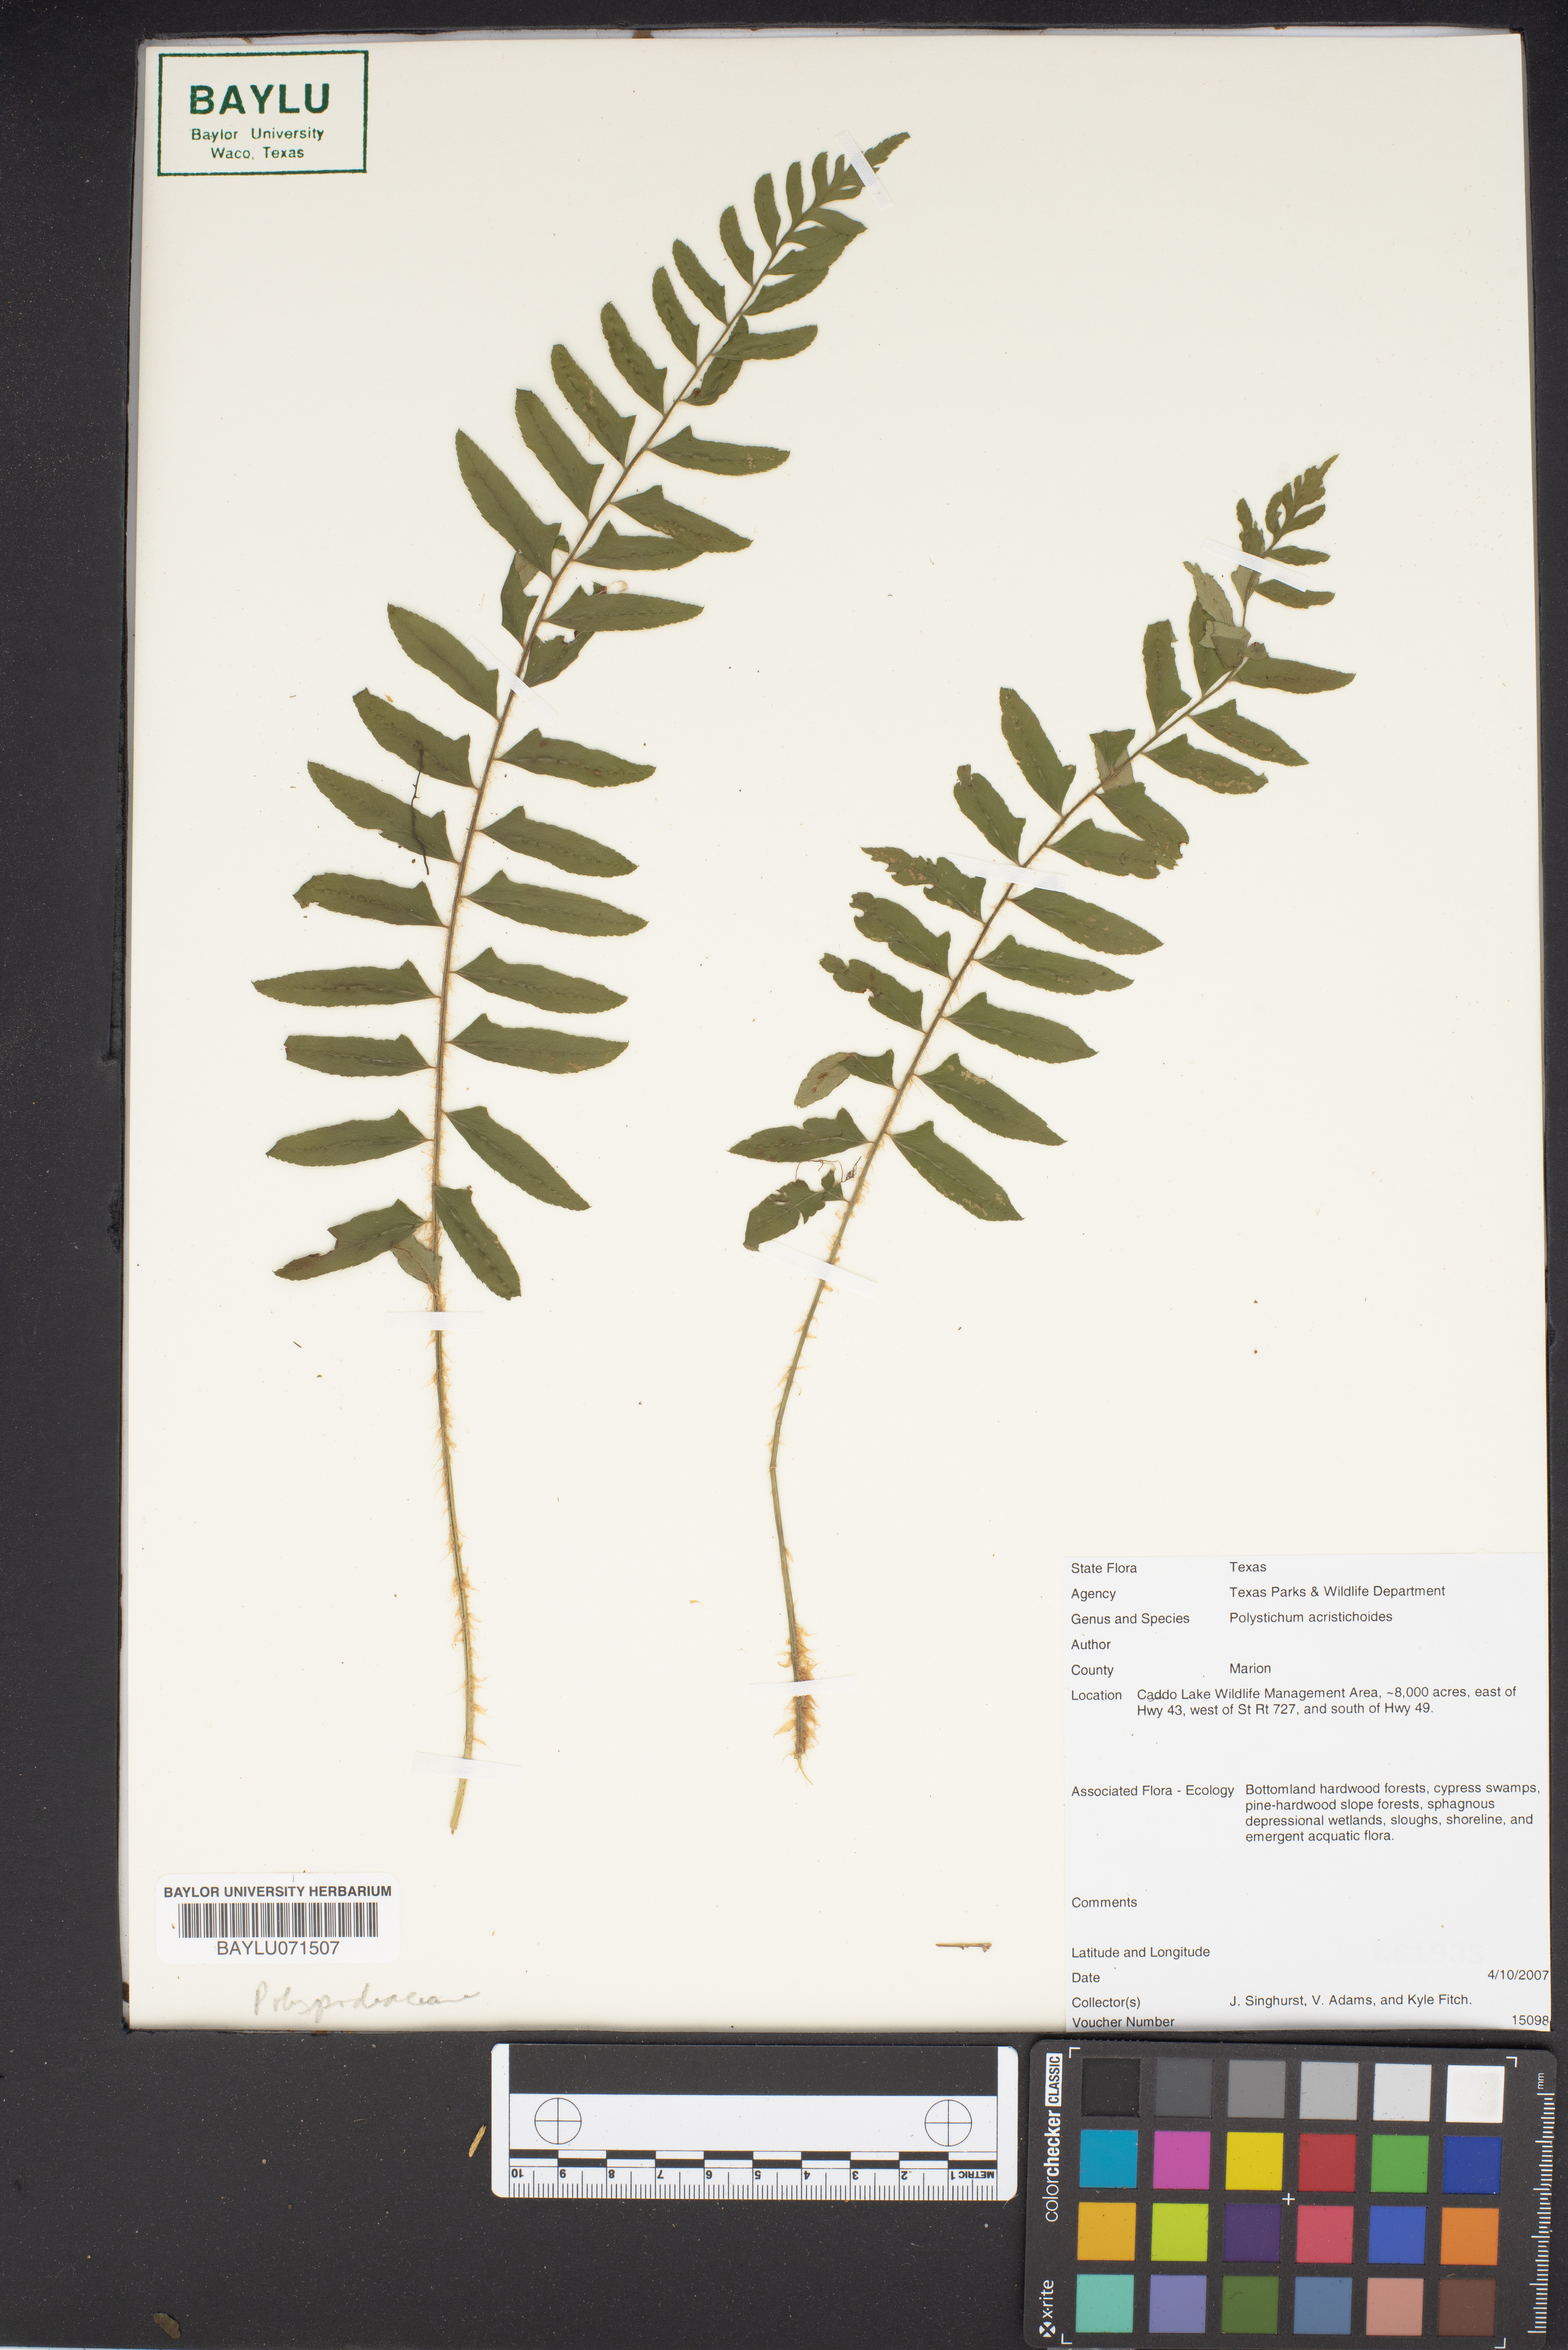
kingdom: Plantae
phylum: Tracheophyta
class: Polypodiopsida
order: Polypodiales
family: Dryopteridaceae
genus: Polystichum
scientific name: Polystichum acrostichoides
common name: Christmas fern
